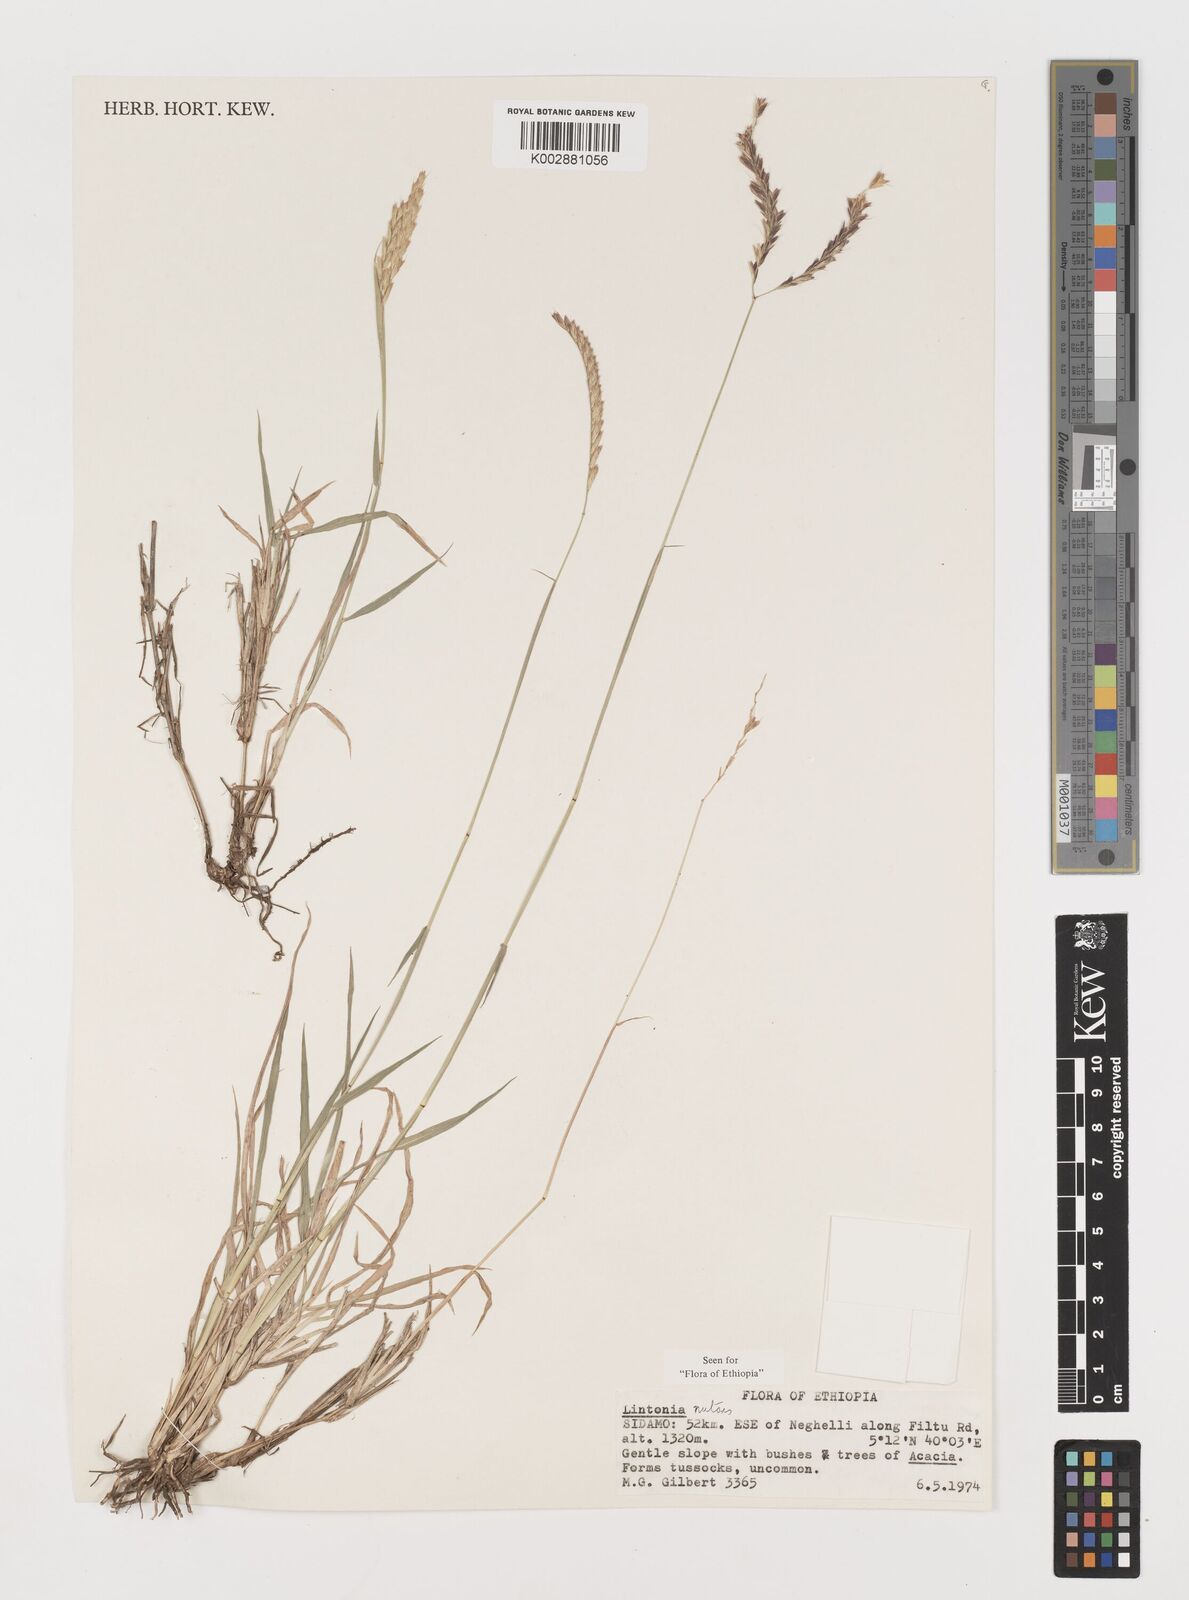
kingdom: Plantae
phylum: Tracheophyta
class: Liliopsida
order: Poales
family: Poaceae
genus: Chloris
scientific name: Chloris nutans
